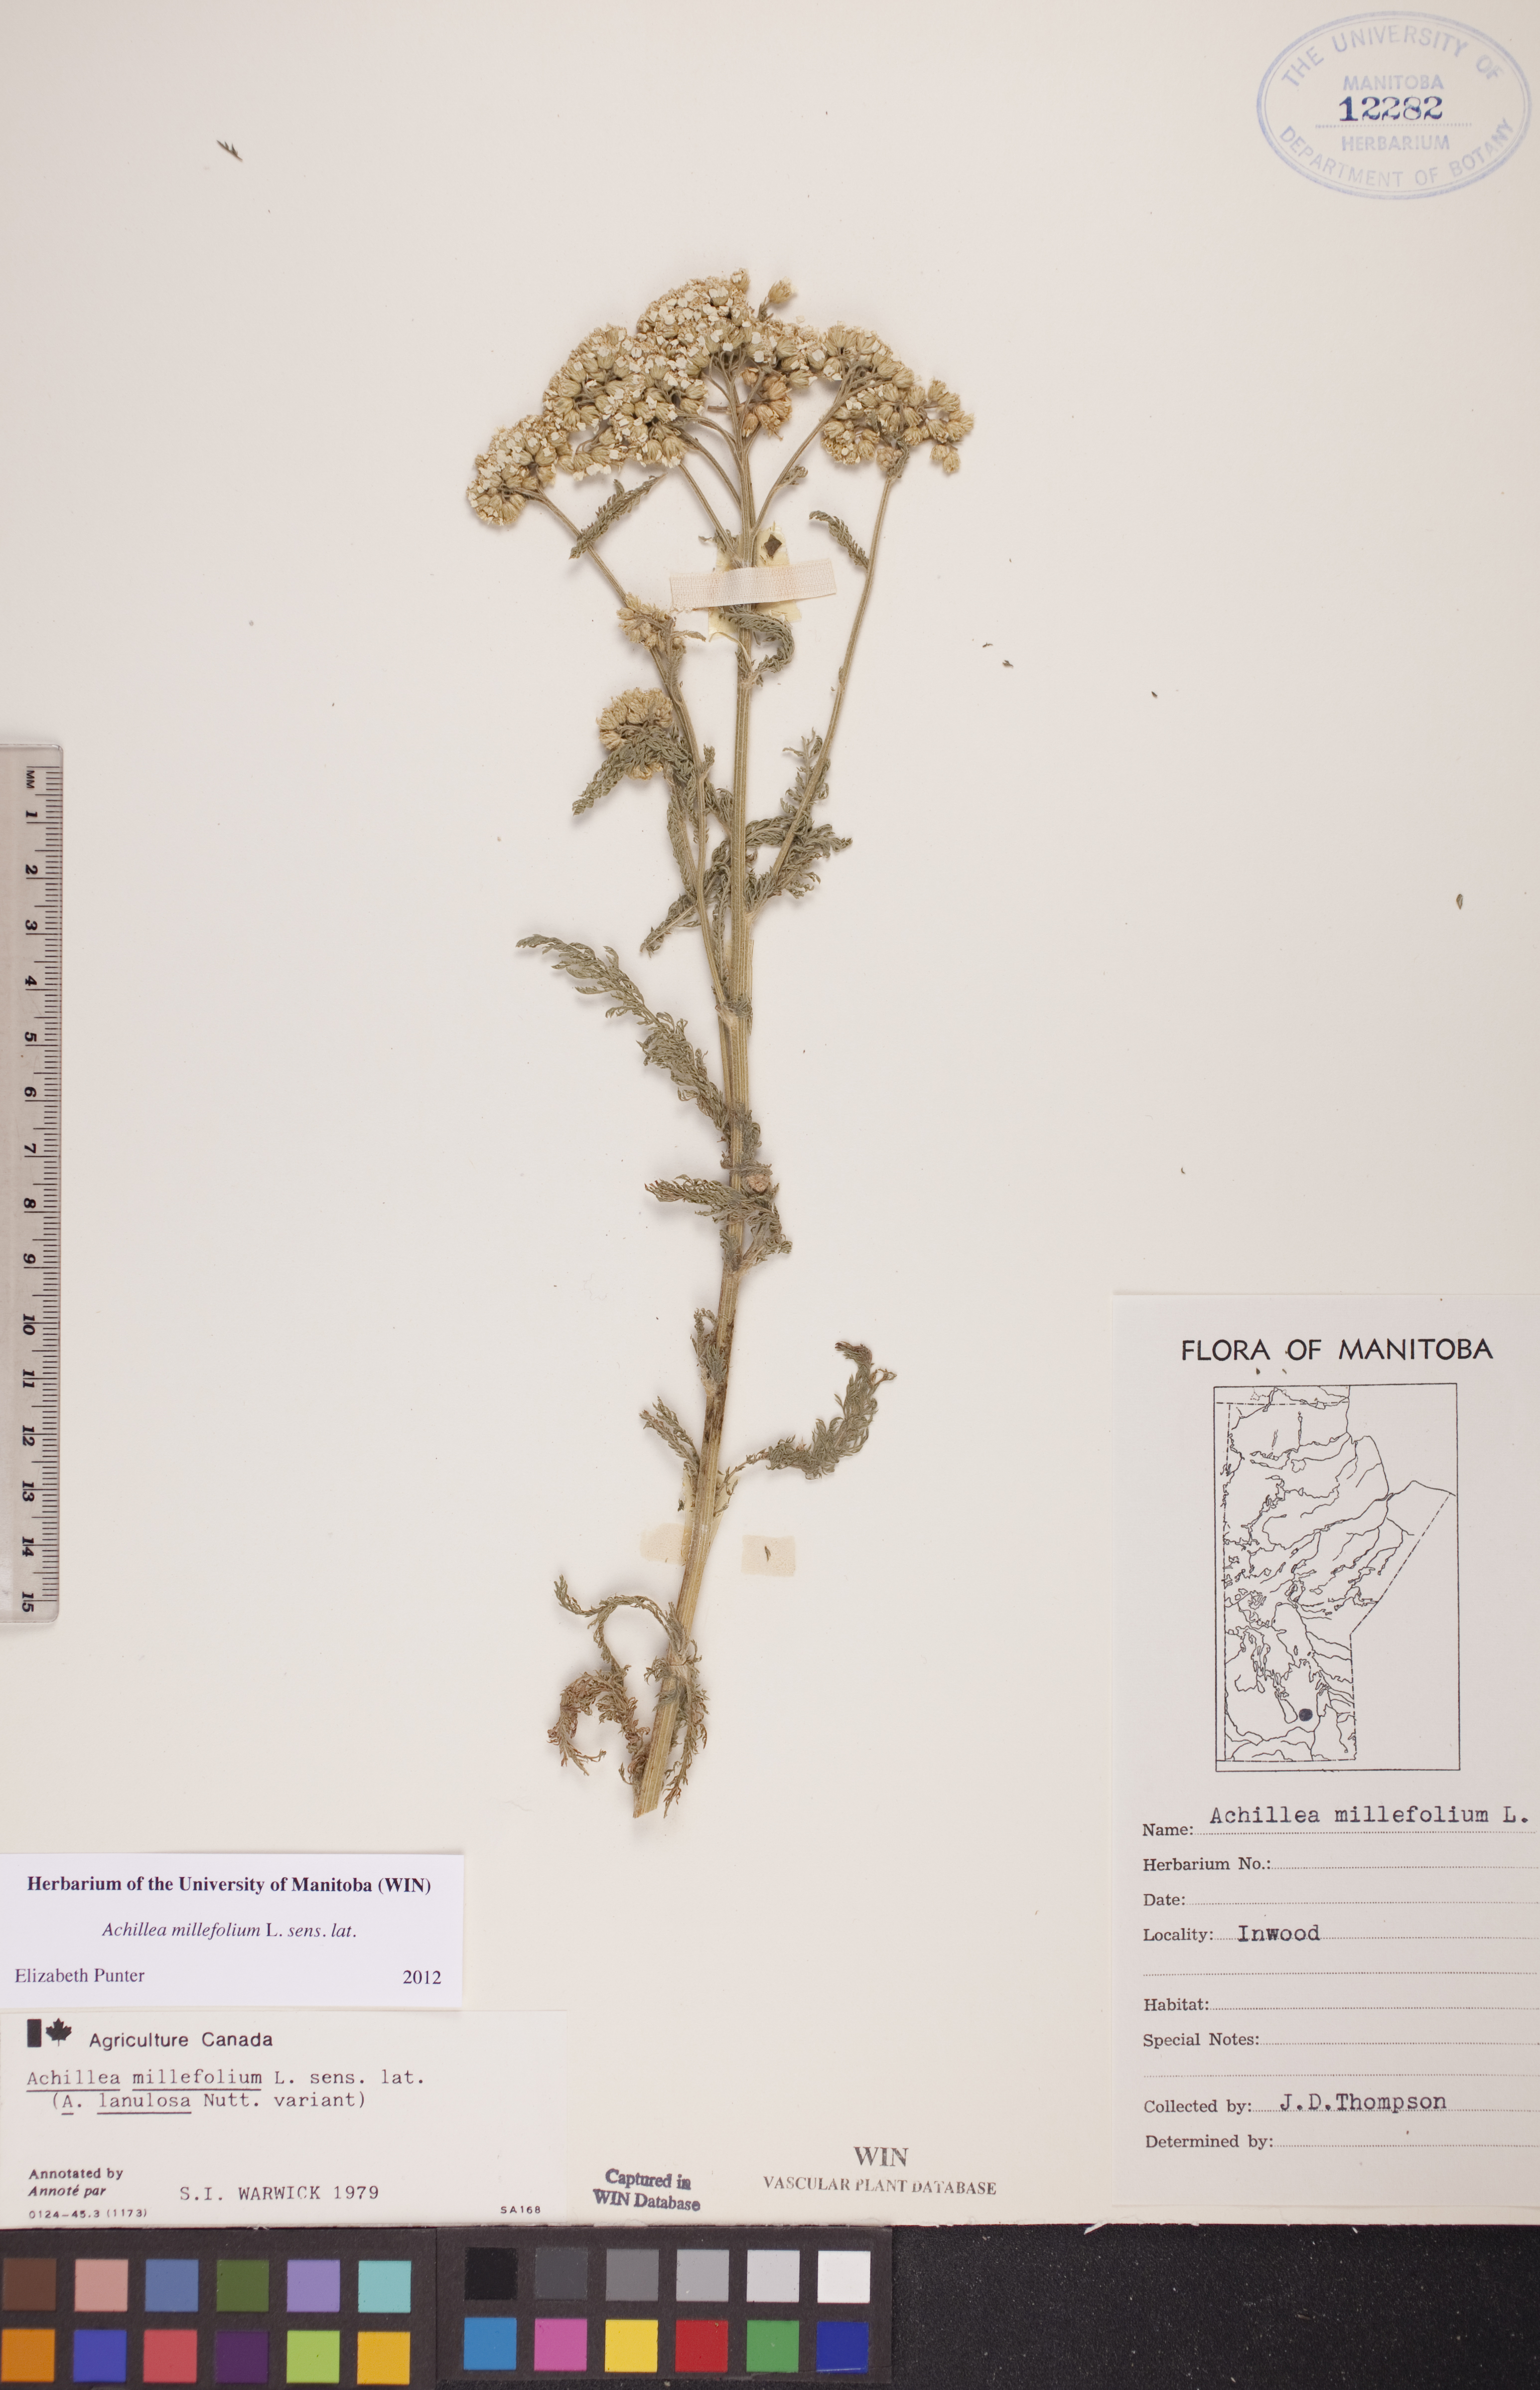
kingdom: Plantae
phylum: Tracheophyta
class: Magnoliopsida
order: Asterales
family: Asteraceae
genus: Achillea
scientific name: Achillea millefolium
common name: Yarrow
